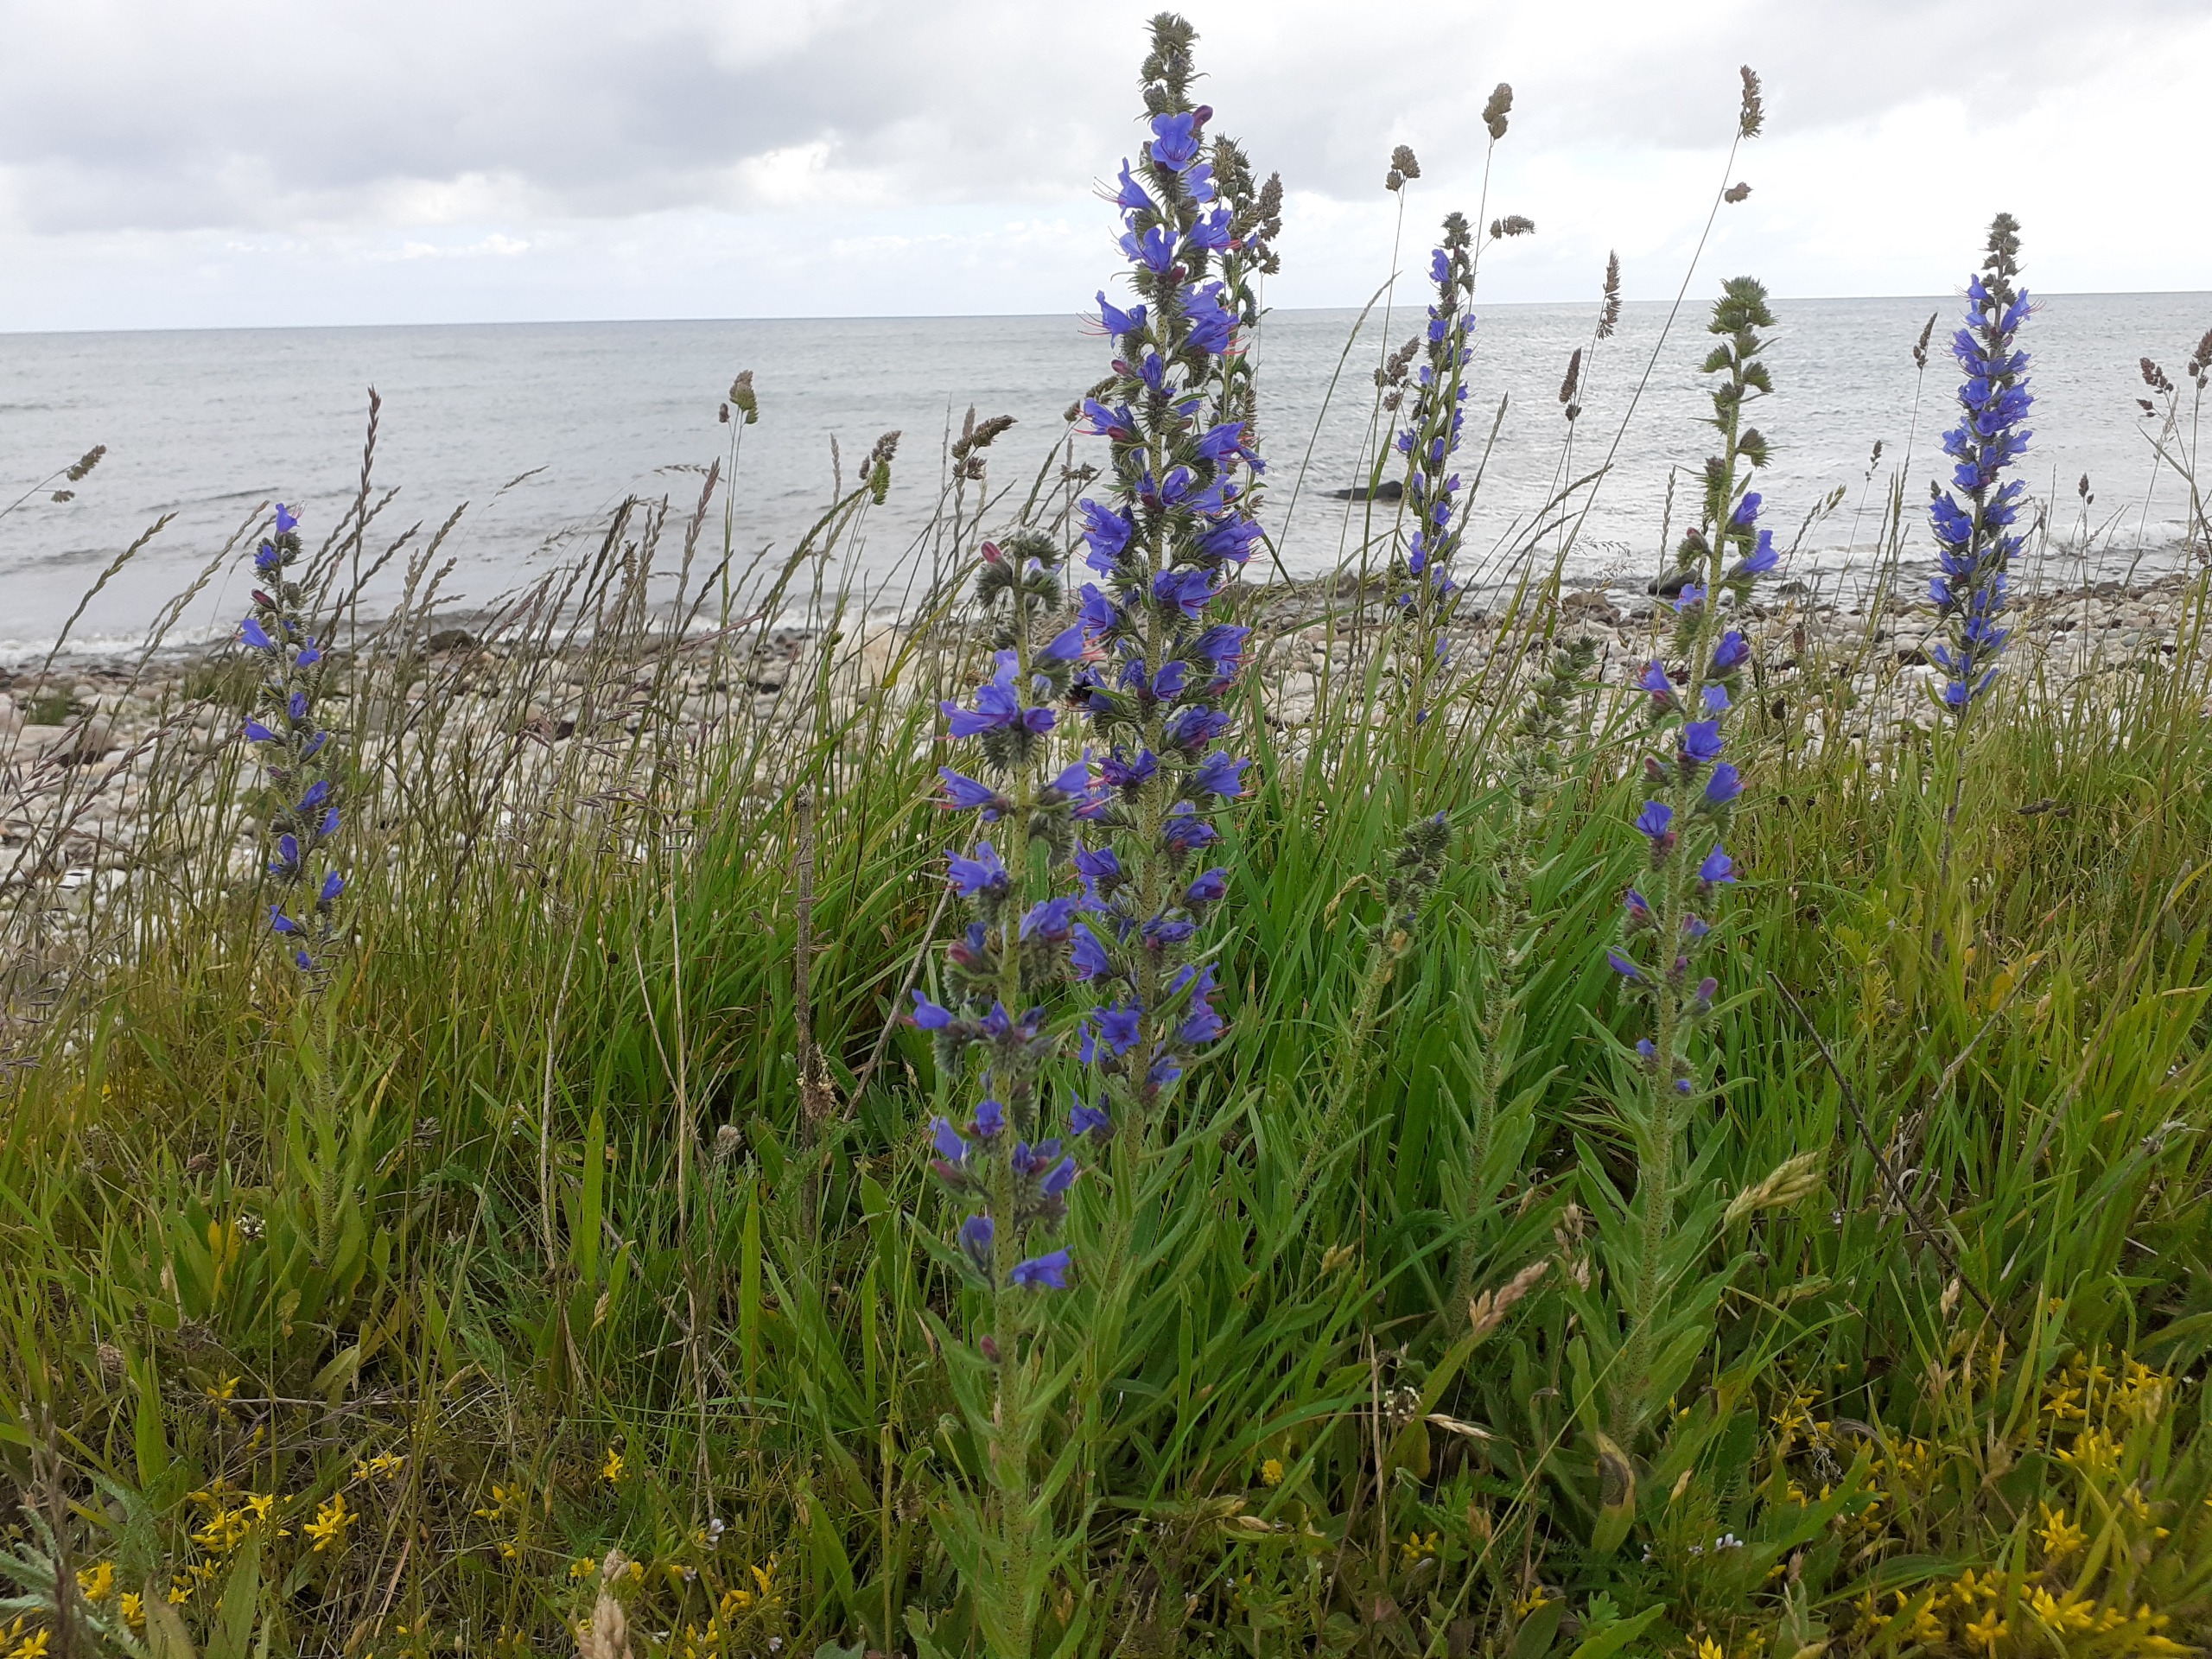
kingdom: Plantae
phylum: Tracheophyta
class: Magnoliopsida
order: Boraginales
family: Boraginaceae
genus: Echium
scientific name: Echium vulgare
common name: Slangehoved
